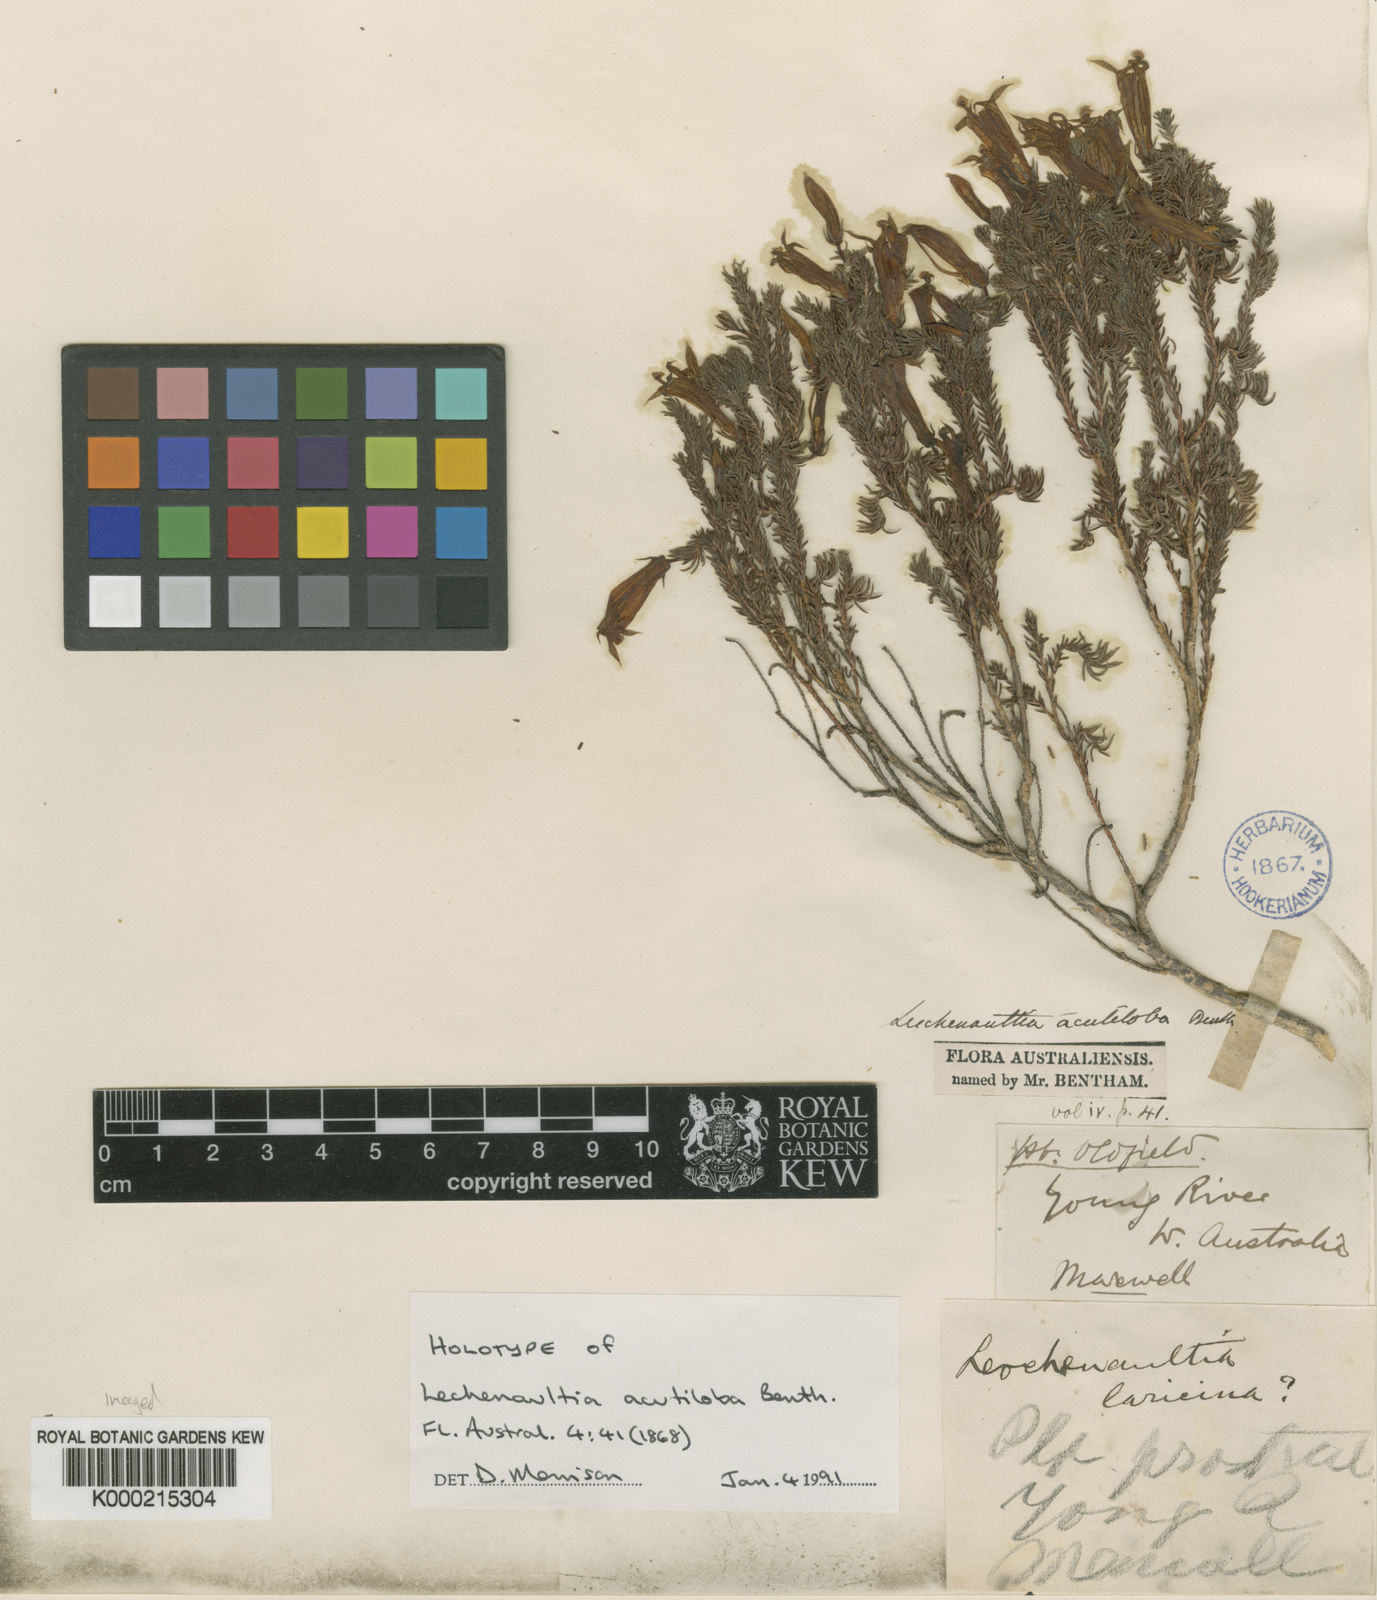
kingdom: Plantae
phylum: Tracheophyta
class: Magnoliopsida
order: Asterales
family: Goodeniaceae
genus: Leschenaultia
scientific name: Leschenaultia acutiloba
